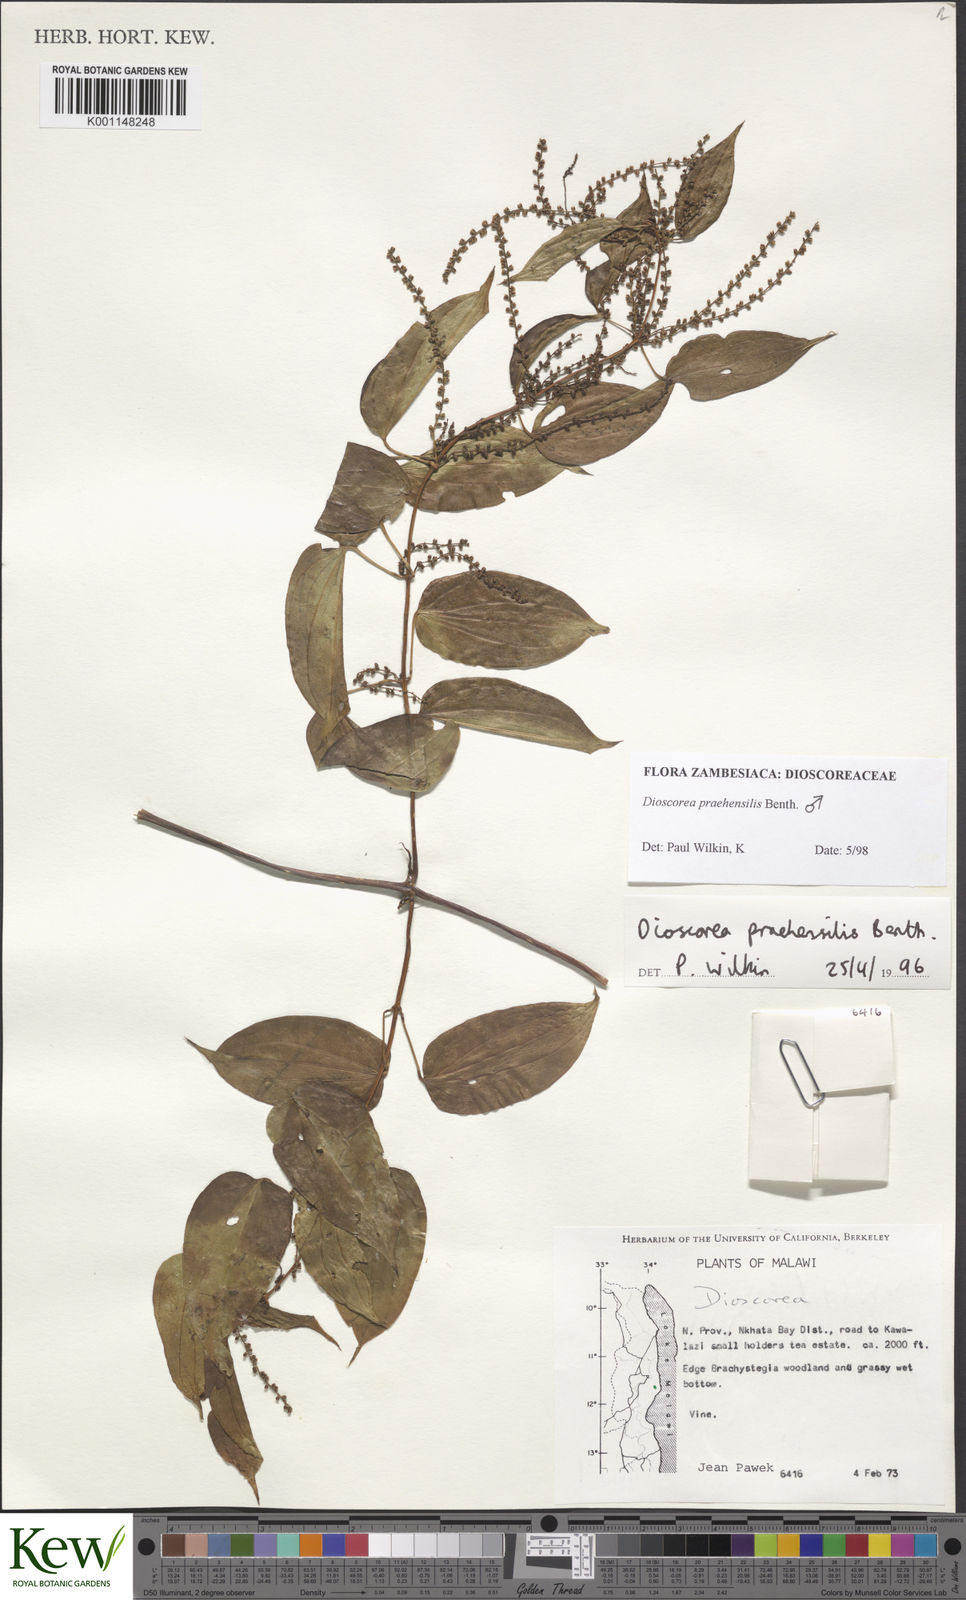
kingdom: Plantae
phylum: Tracheophyta
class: Liliopsida
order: Dioscoreales
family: Dioscoreaceae
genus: Dioscorea
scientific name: Dioscorea praehensilis
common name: Bush yam
